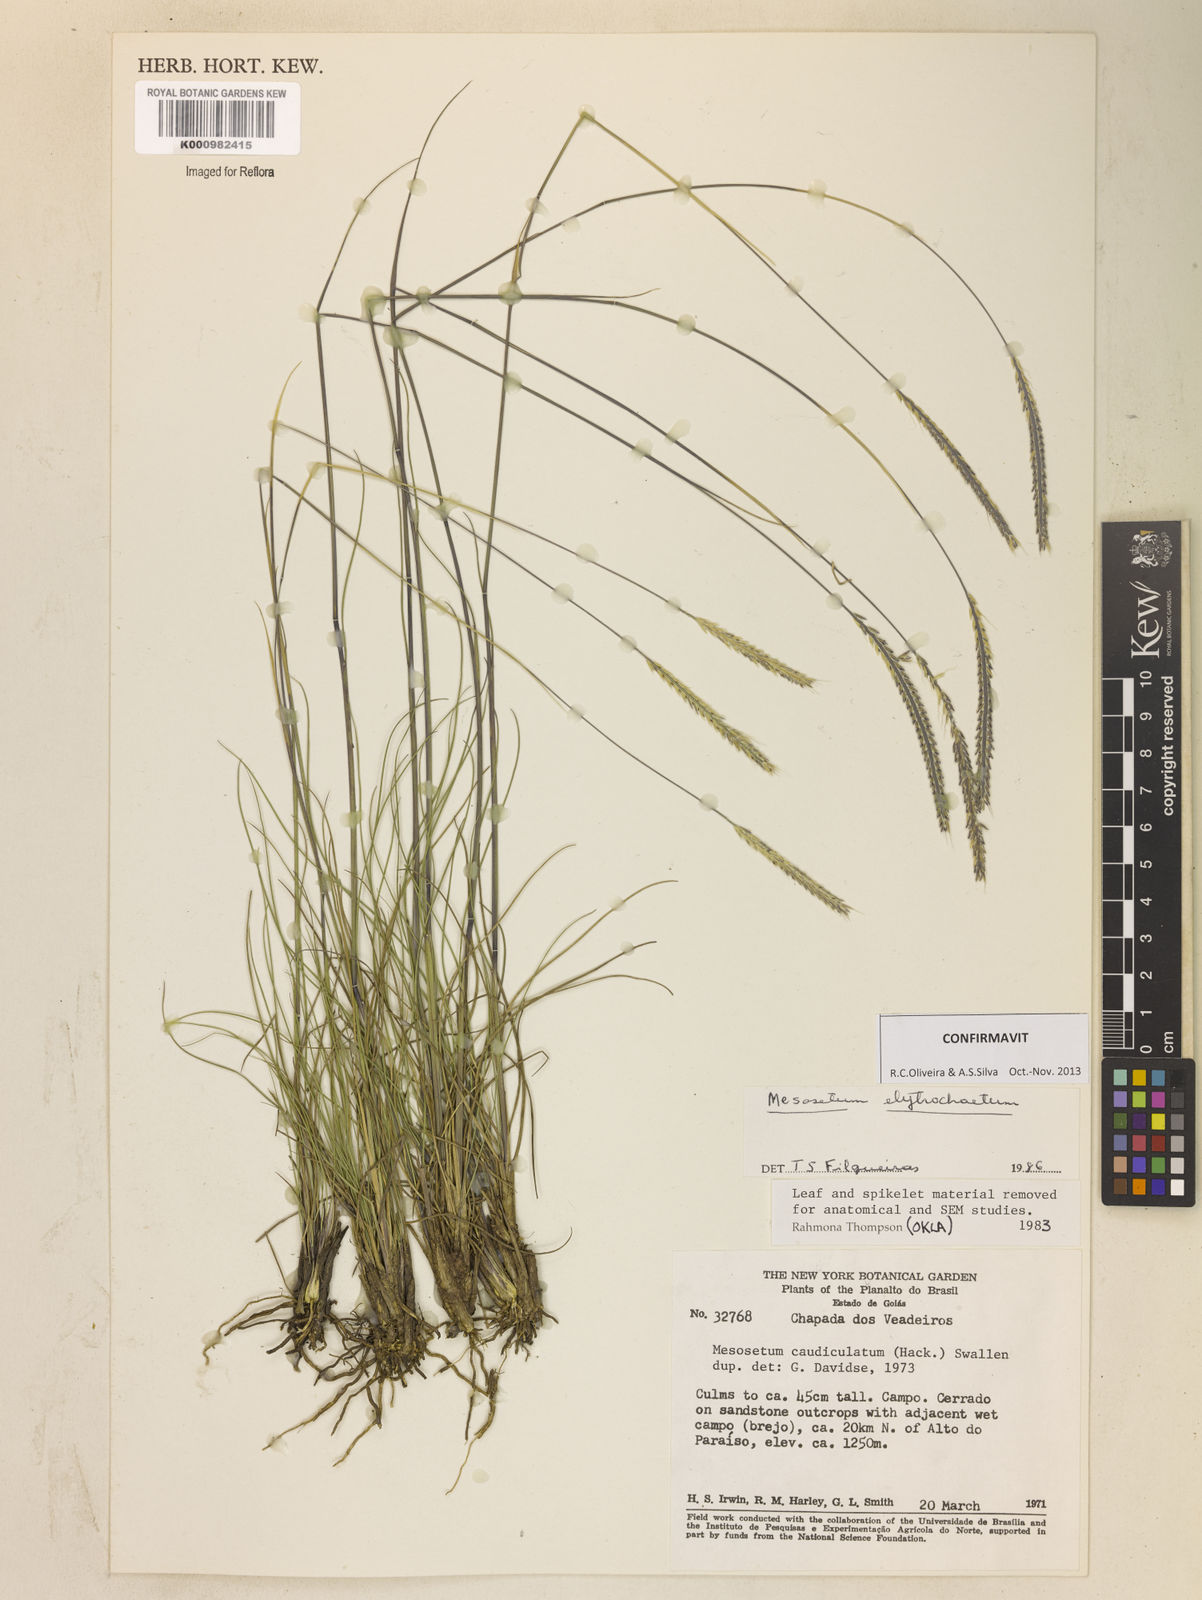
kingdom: Plantae
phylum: Tracheophyta
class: Liliopsida
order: Poales
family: Poaceae
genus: Mesosetum
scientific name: Mesosetum elytrochaetum
